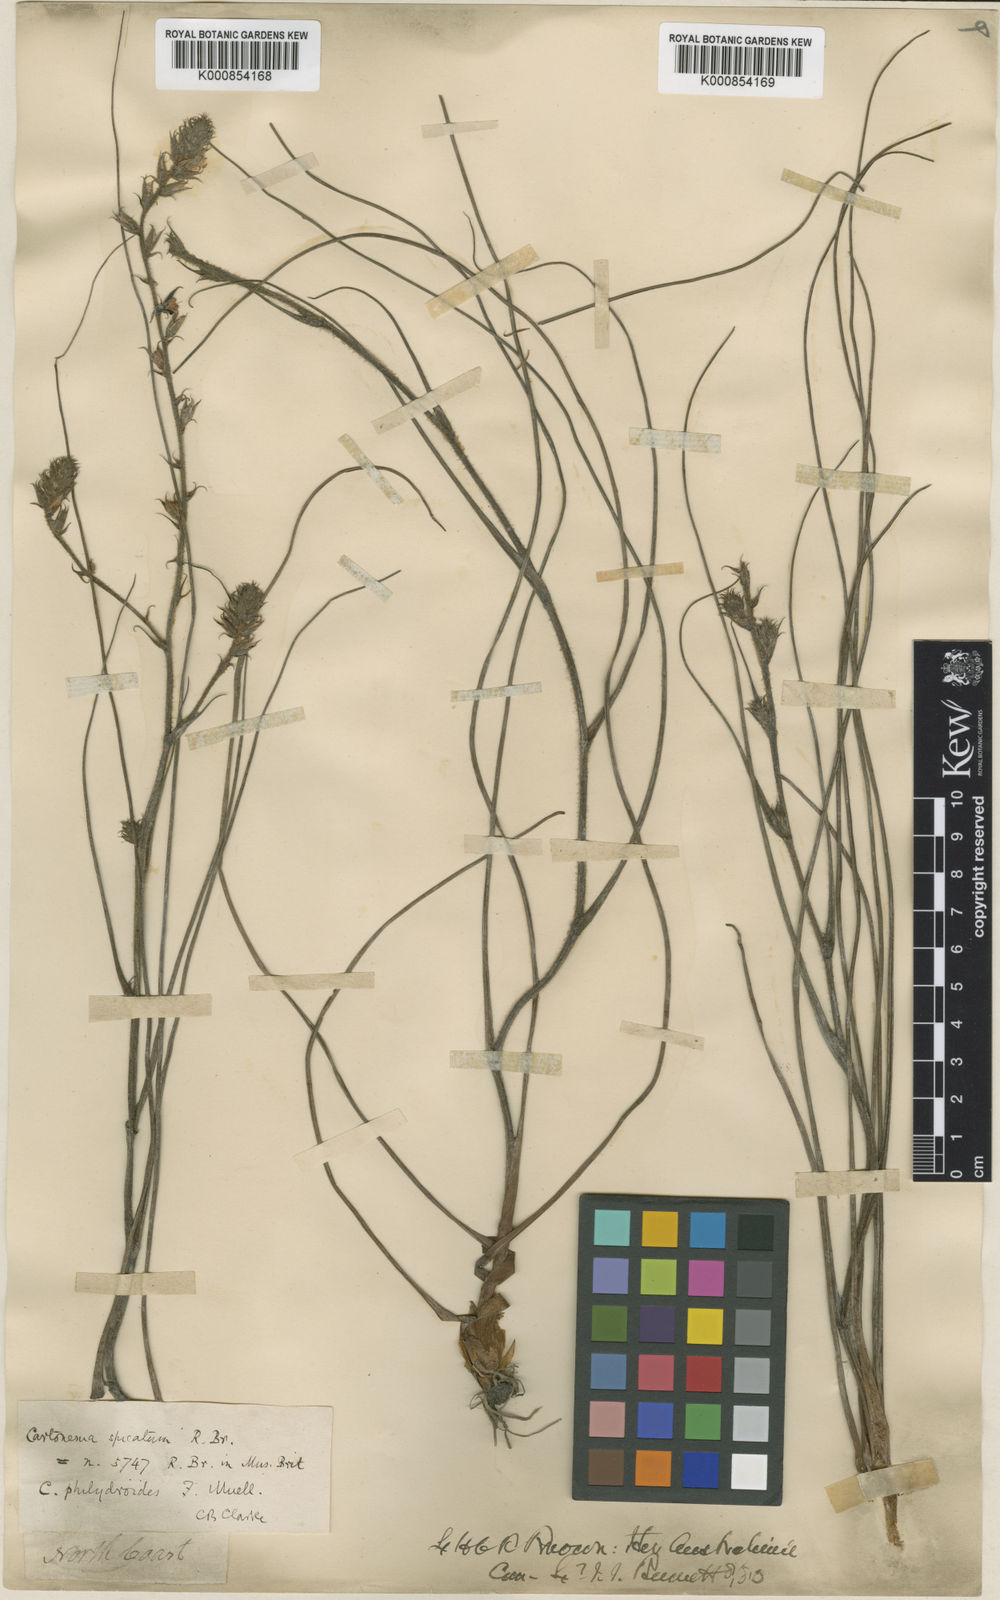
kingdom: Plantae
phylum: Tracheophyta
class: Liliopsida
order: Commelinales
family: Commelinaceae
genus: Cartonema
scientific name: Cartonema spicatum
